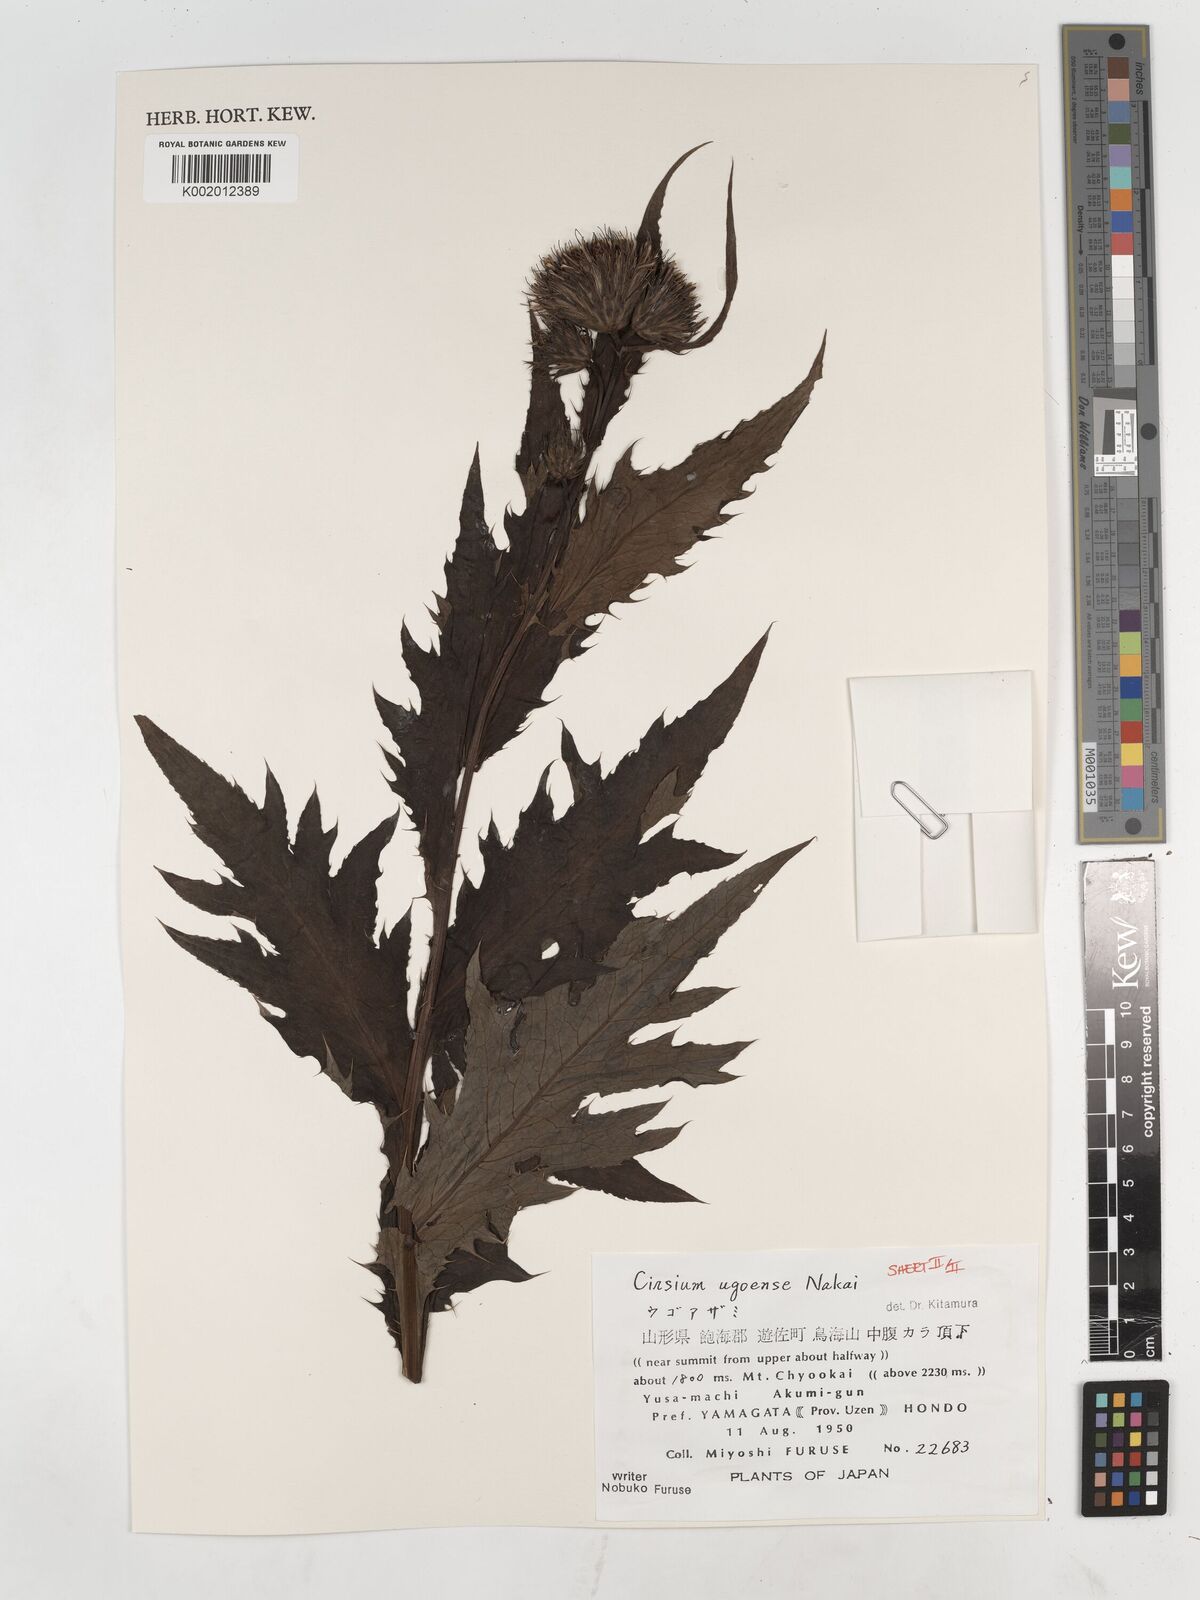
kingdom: Plantae
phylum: Tracheophyta
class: Magnoliopsida
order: Asterales
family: Asteraceae
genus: Cirsium
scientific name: Cirsium ugoense
